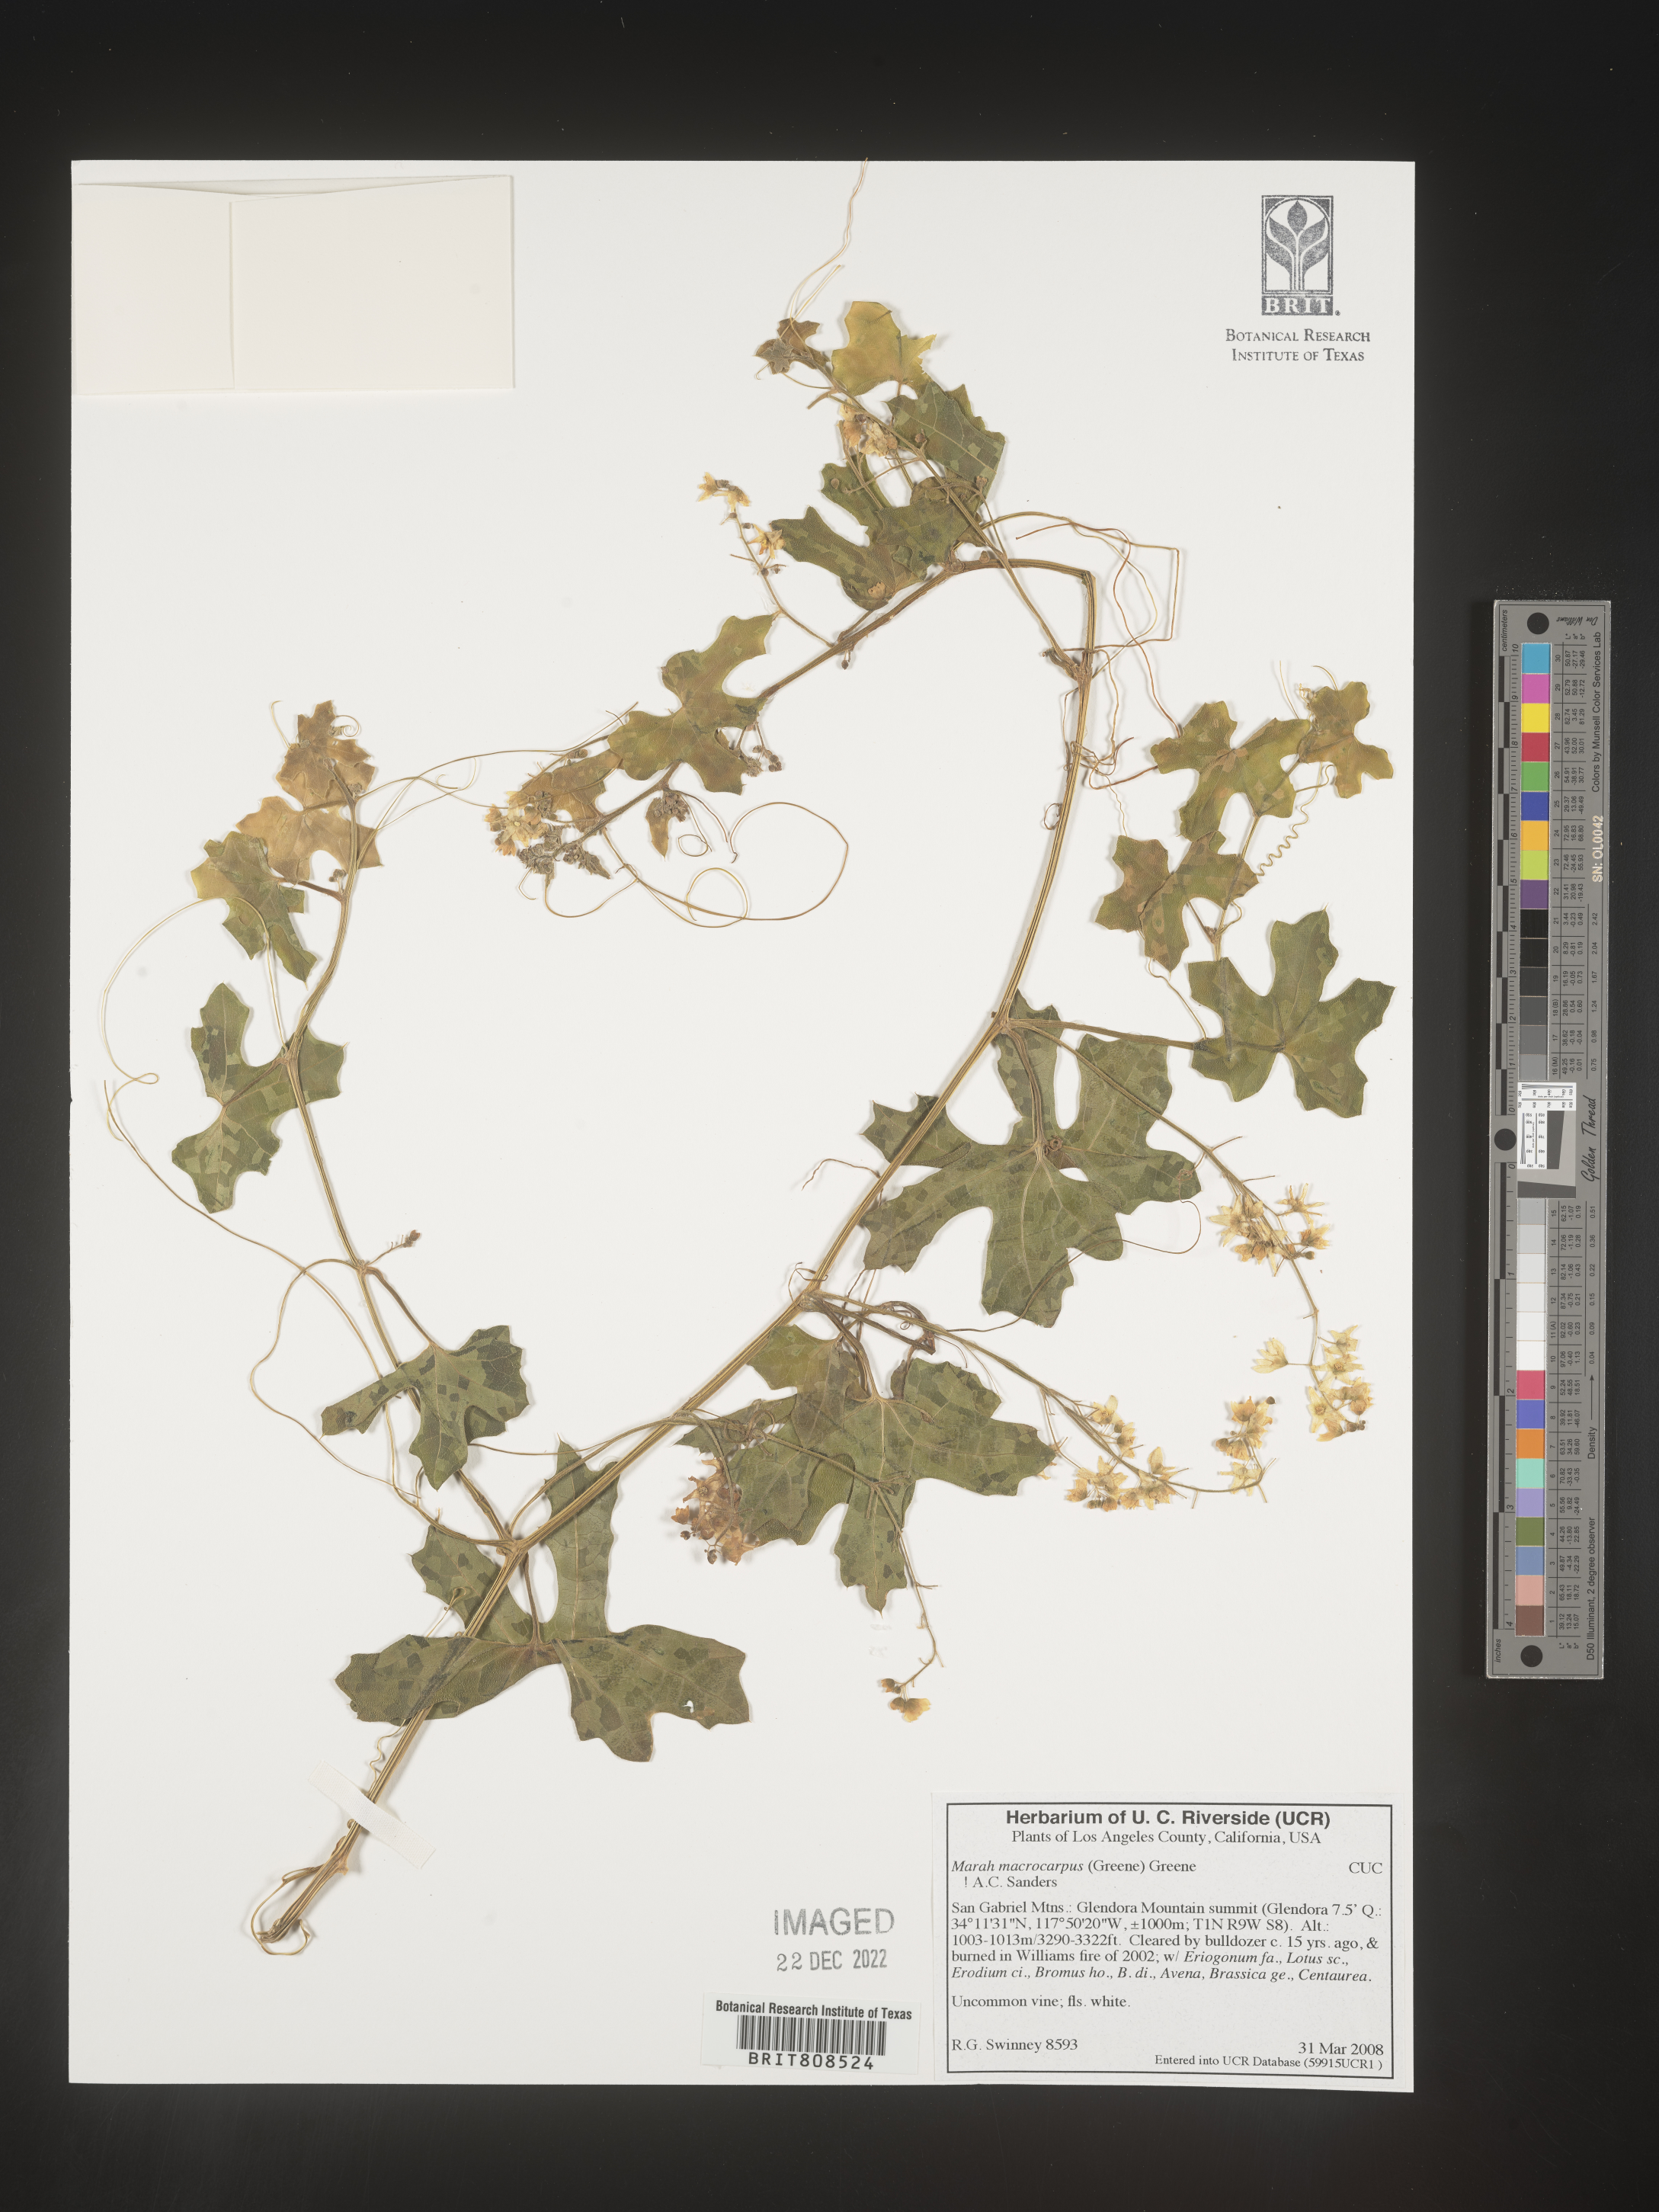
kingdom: Plantae
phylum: Tracheophyta
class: Magnoliopsida
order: Cucurbitales
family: Cucurbitaceae
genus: Marah
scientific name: Marah
